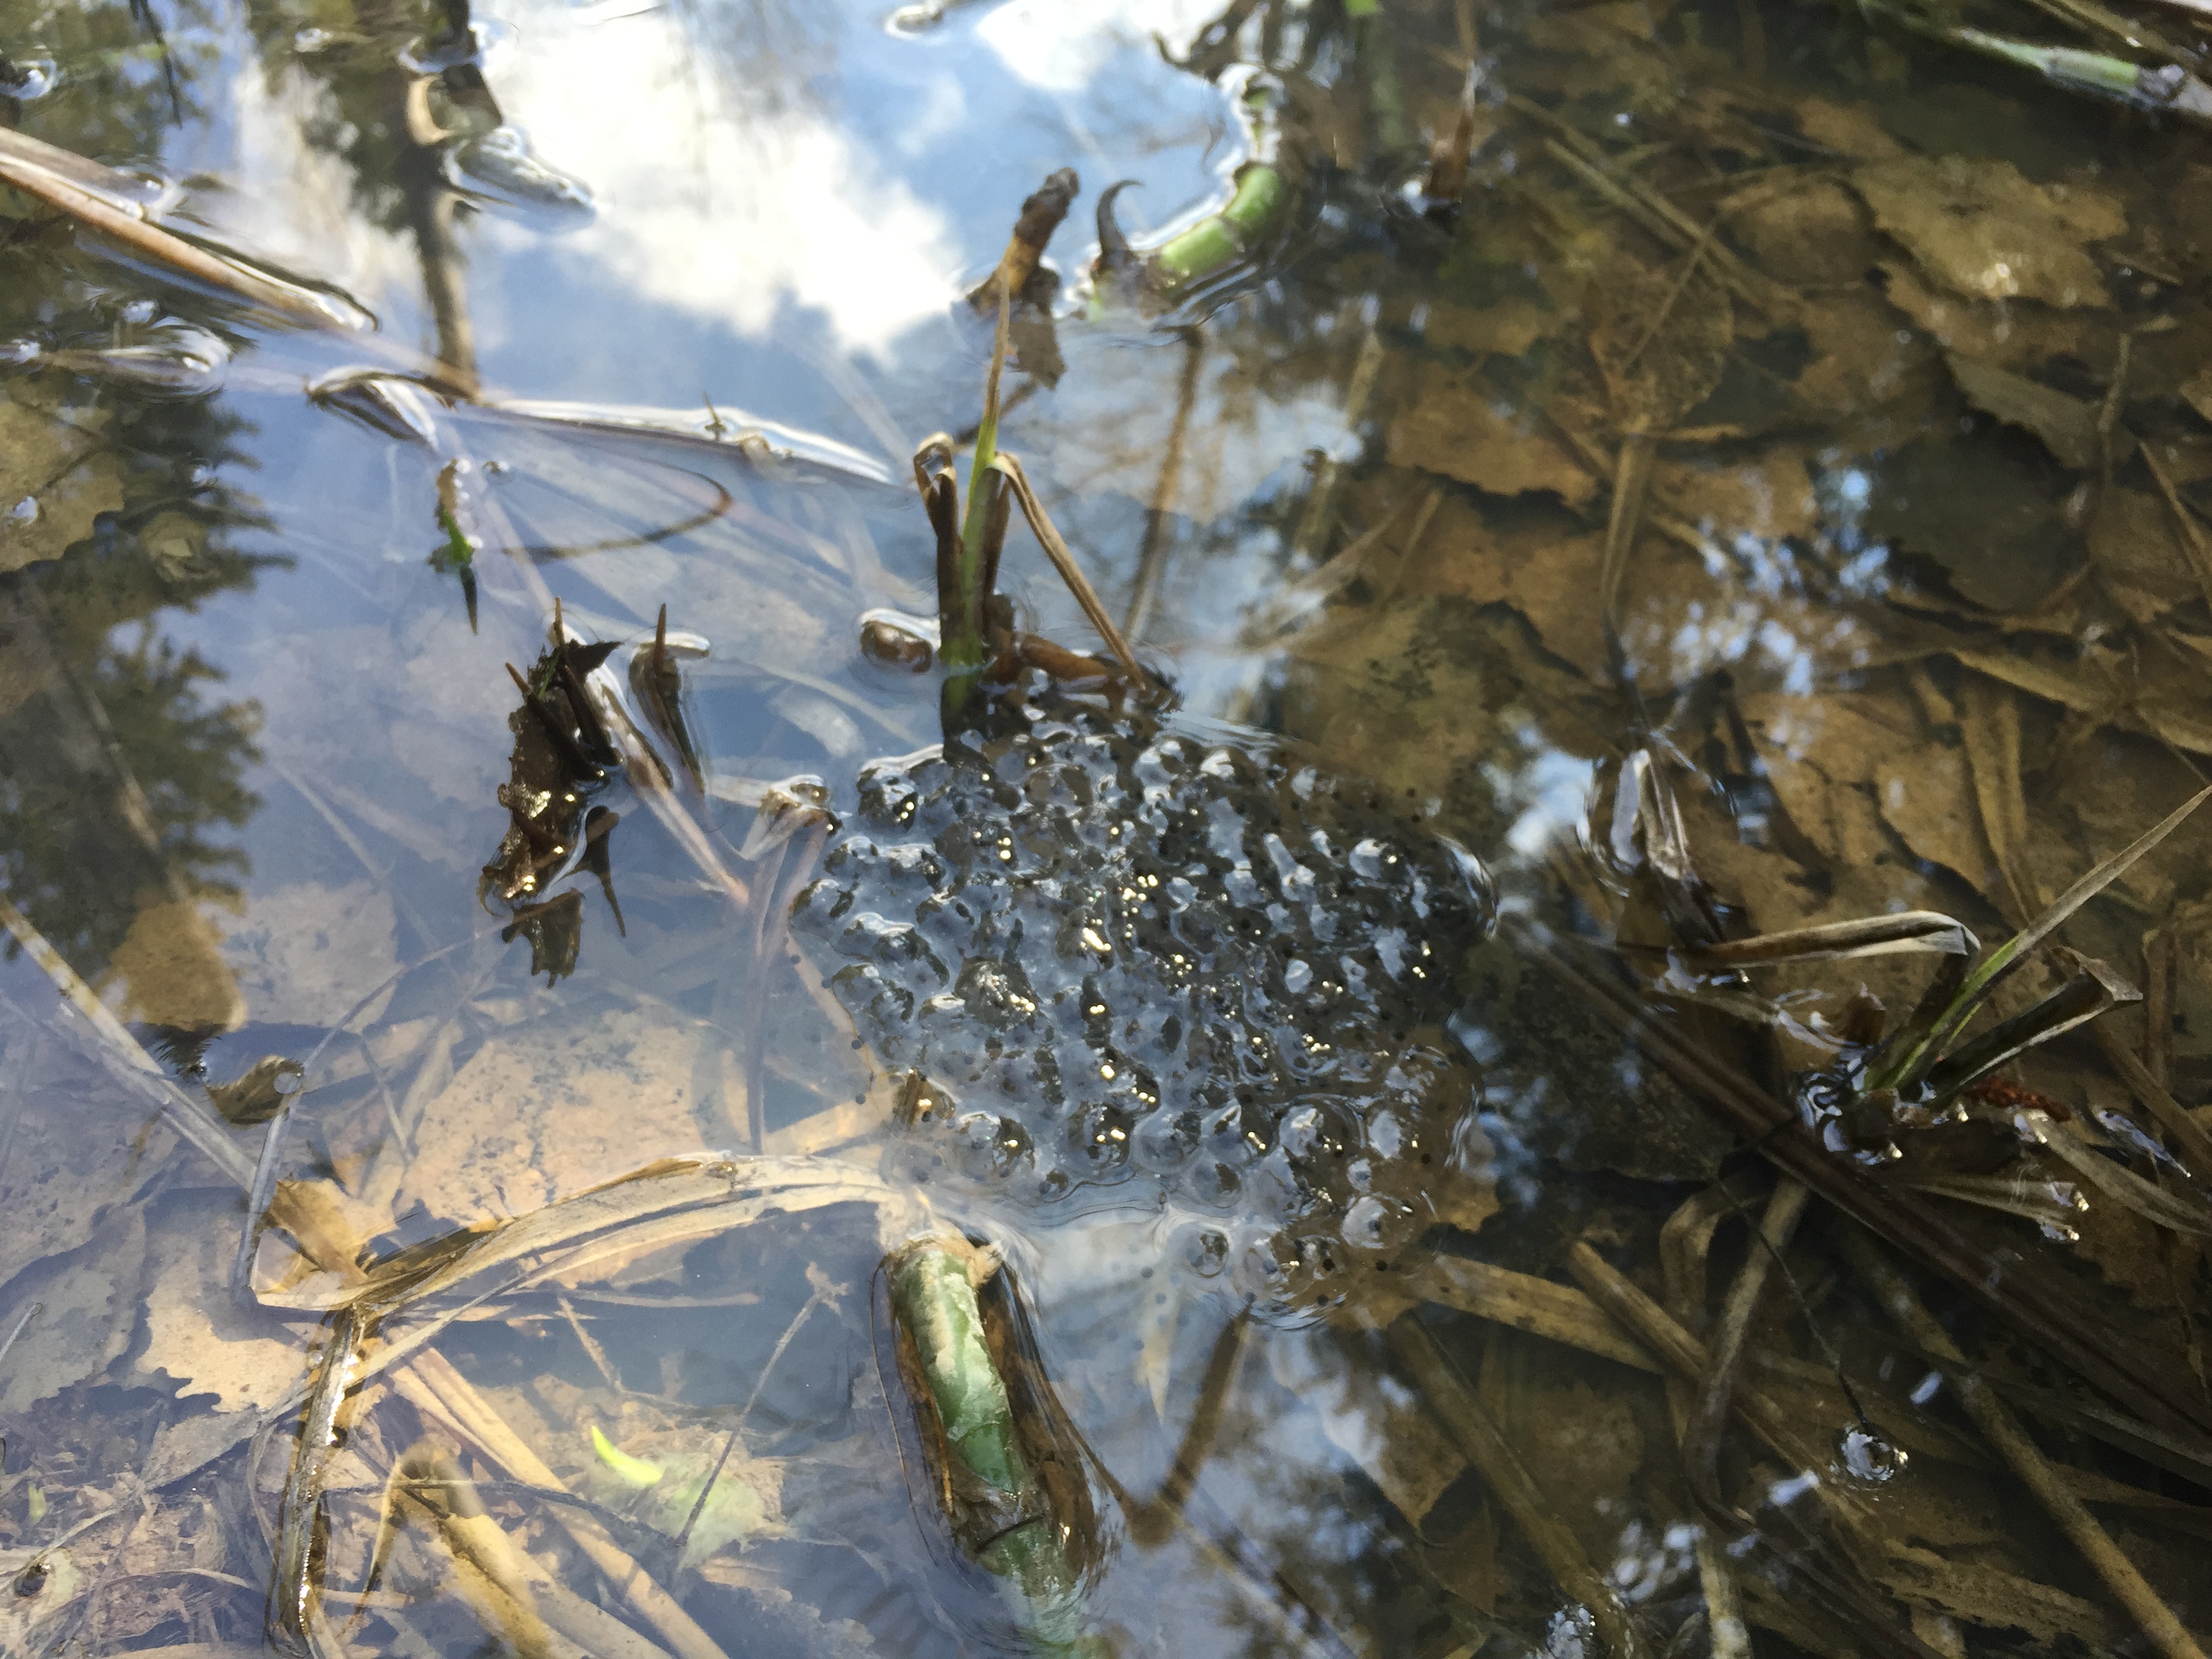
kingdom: Animalia
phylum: Chordata
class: Amphibia
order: Anura
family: Bufonidae
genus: Bufo
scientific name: Bufo bufo
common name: Common toad
